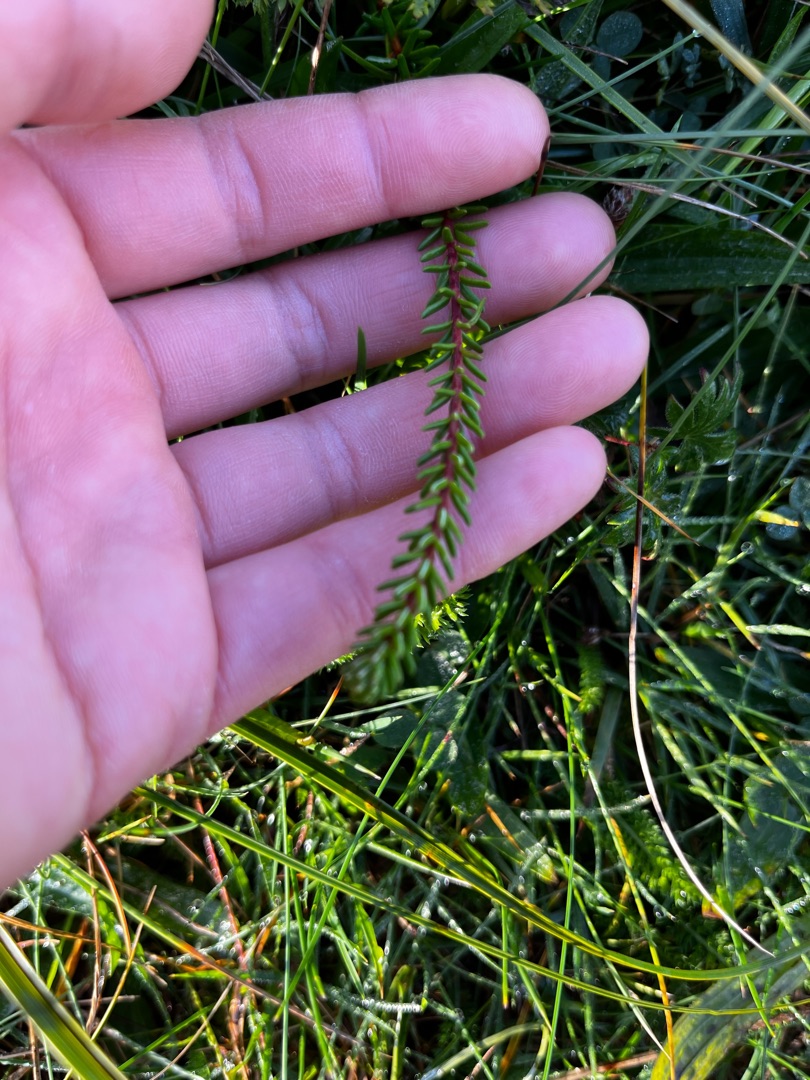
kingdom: Plantae
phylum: Tracheophyta
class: Magnoliopsida
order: Ericales
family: Ericaceae
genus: Empetrum
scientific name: Empetrum nigrum
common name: Revling
